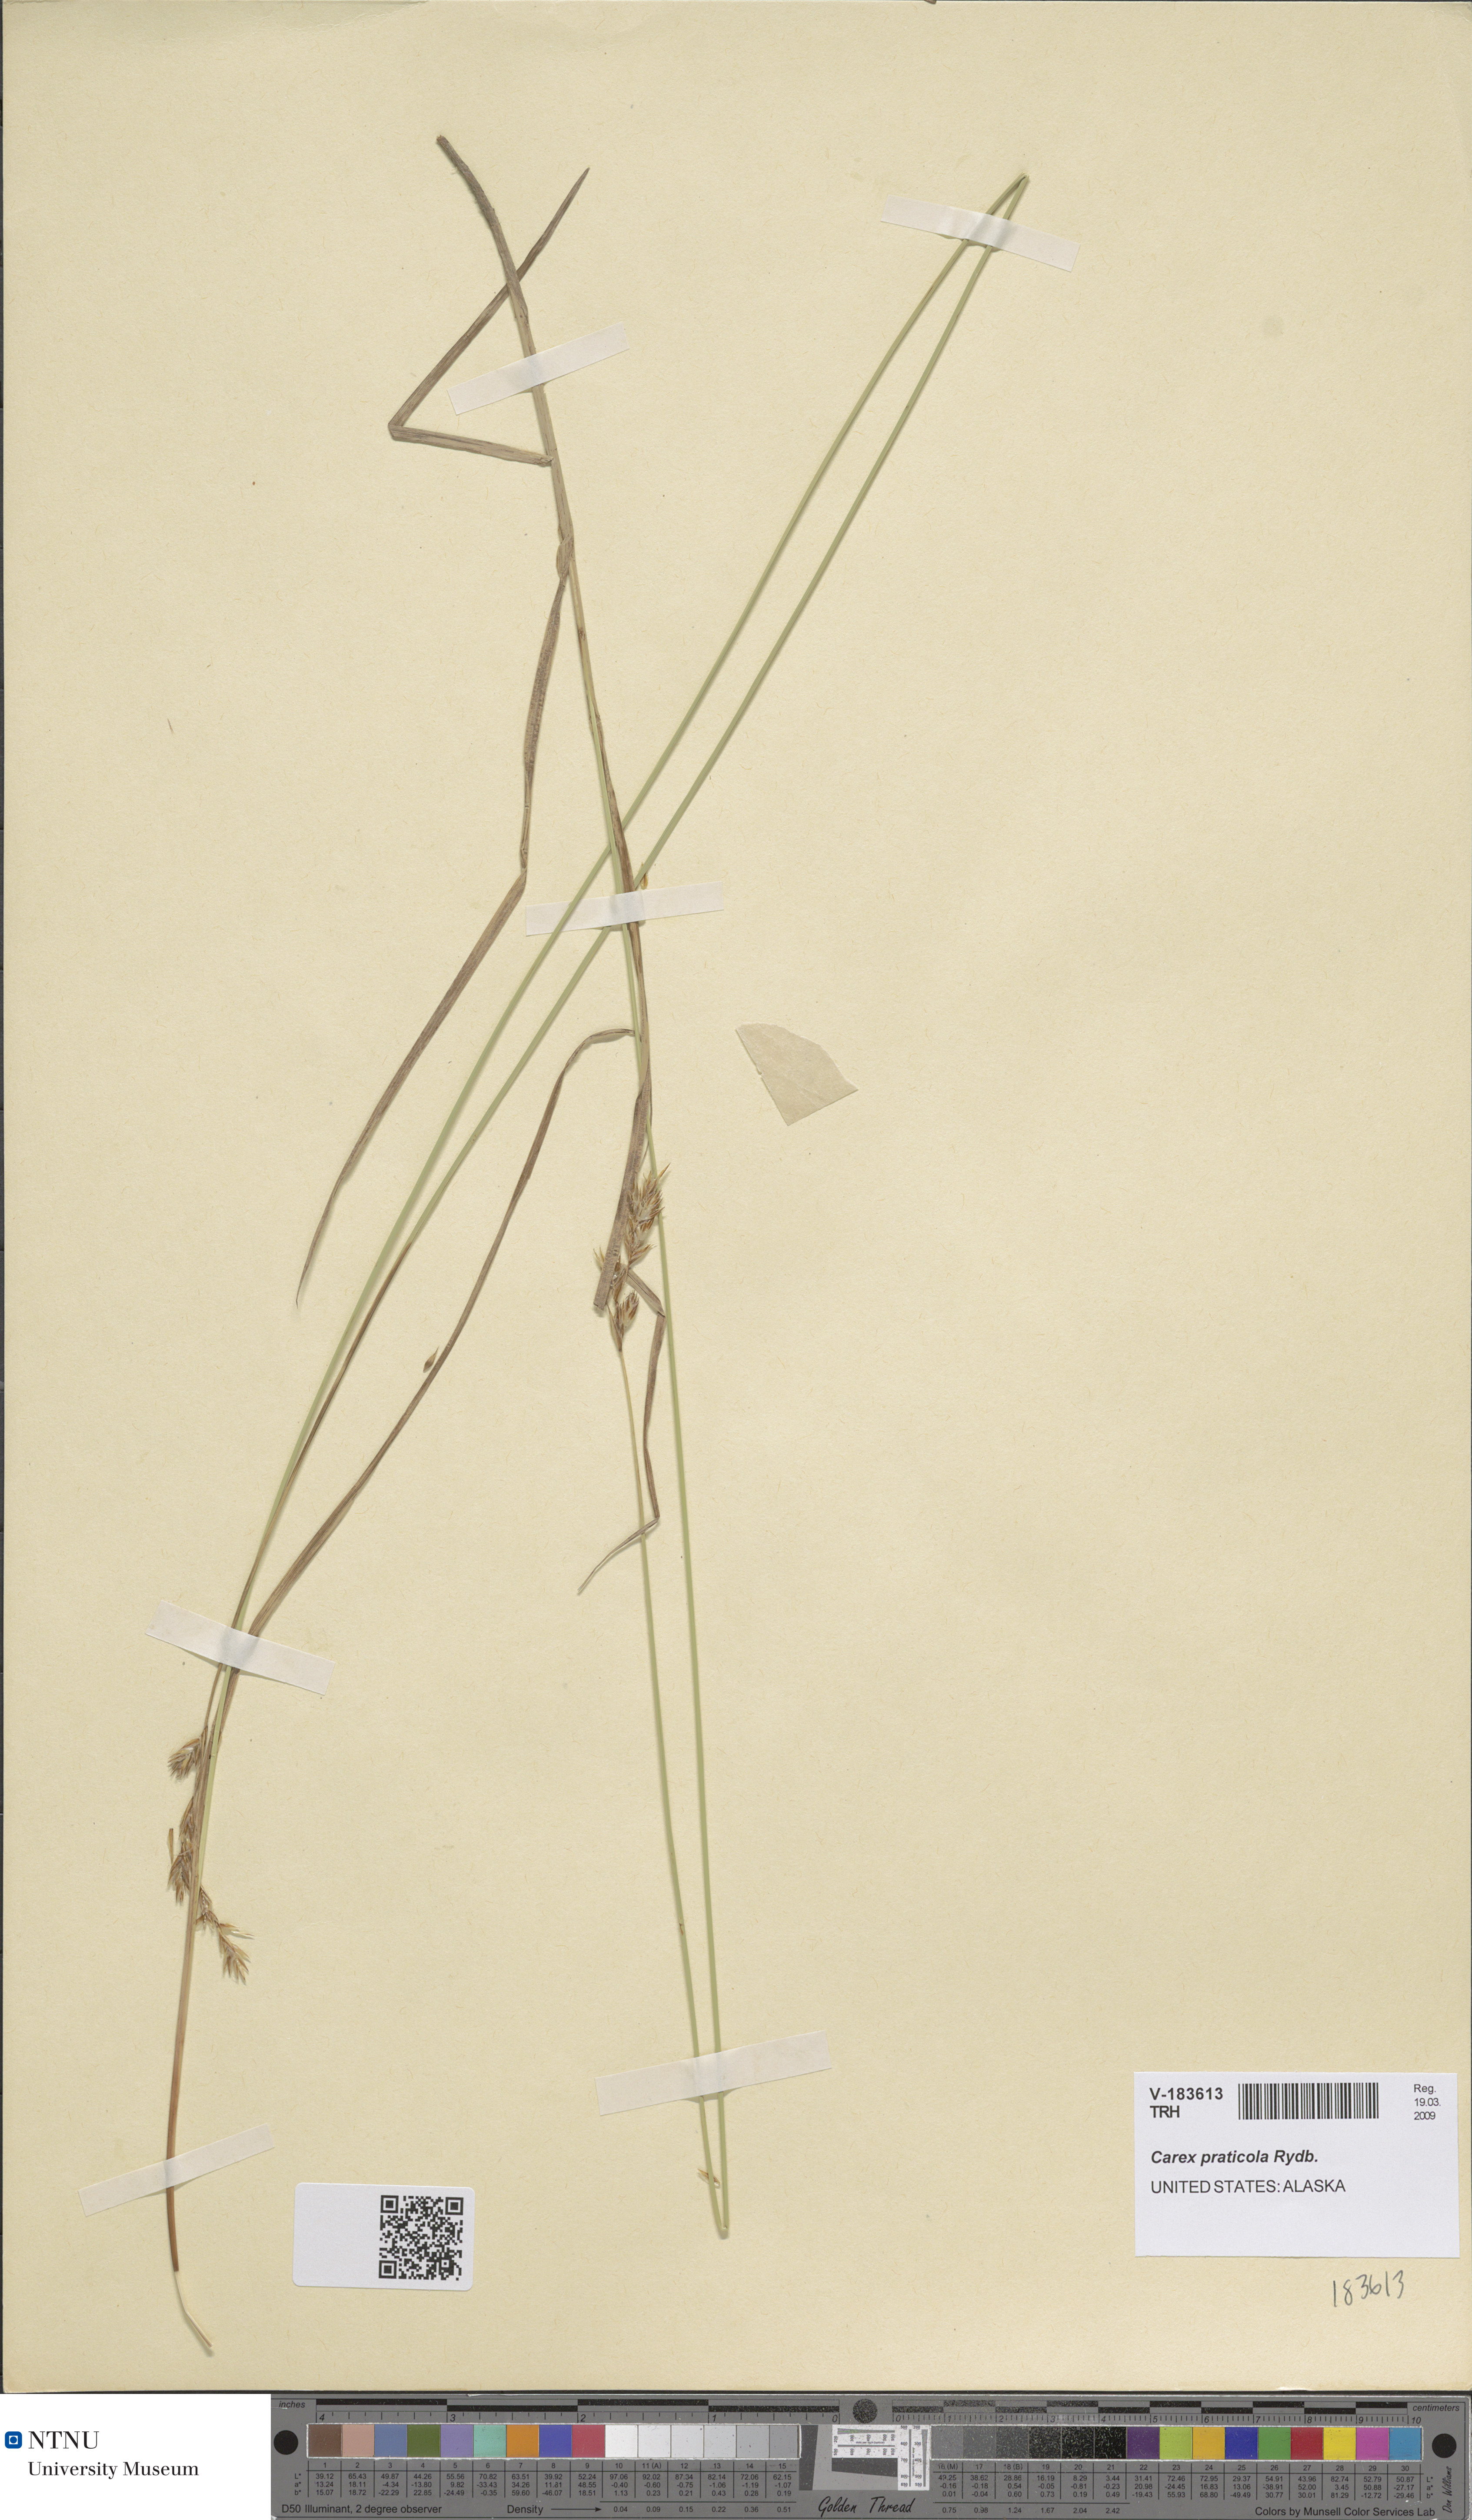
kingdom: Plantae
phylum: Tracheophyta
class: Liliopsida
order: Poales
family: Cyperaceae
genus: Carex
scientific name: Carex praticola
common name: Large-fruited oval sedge
